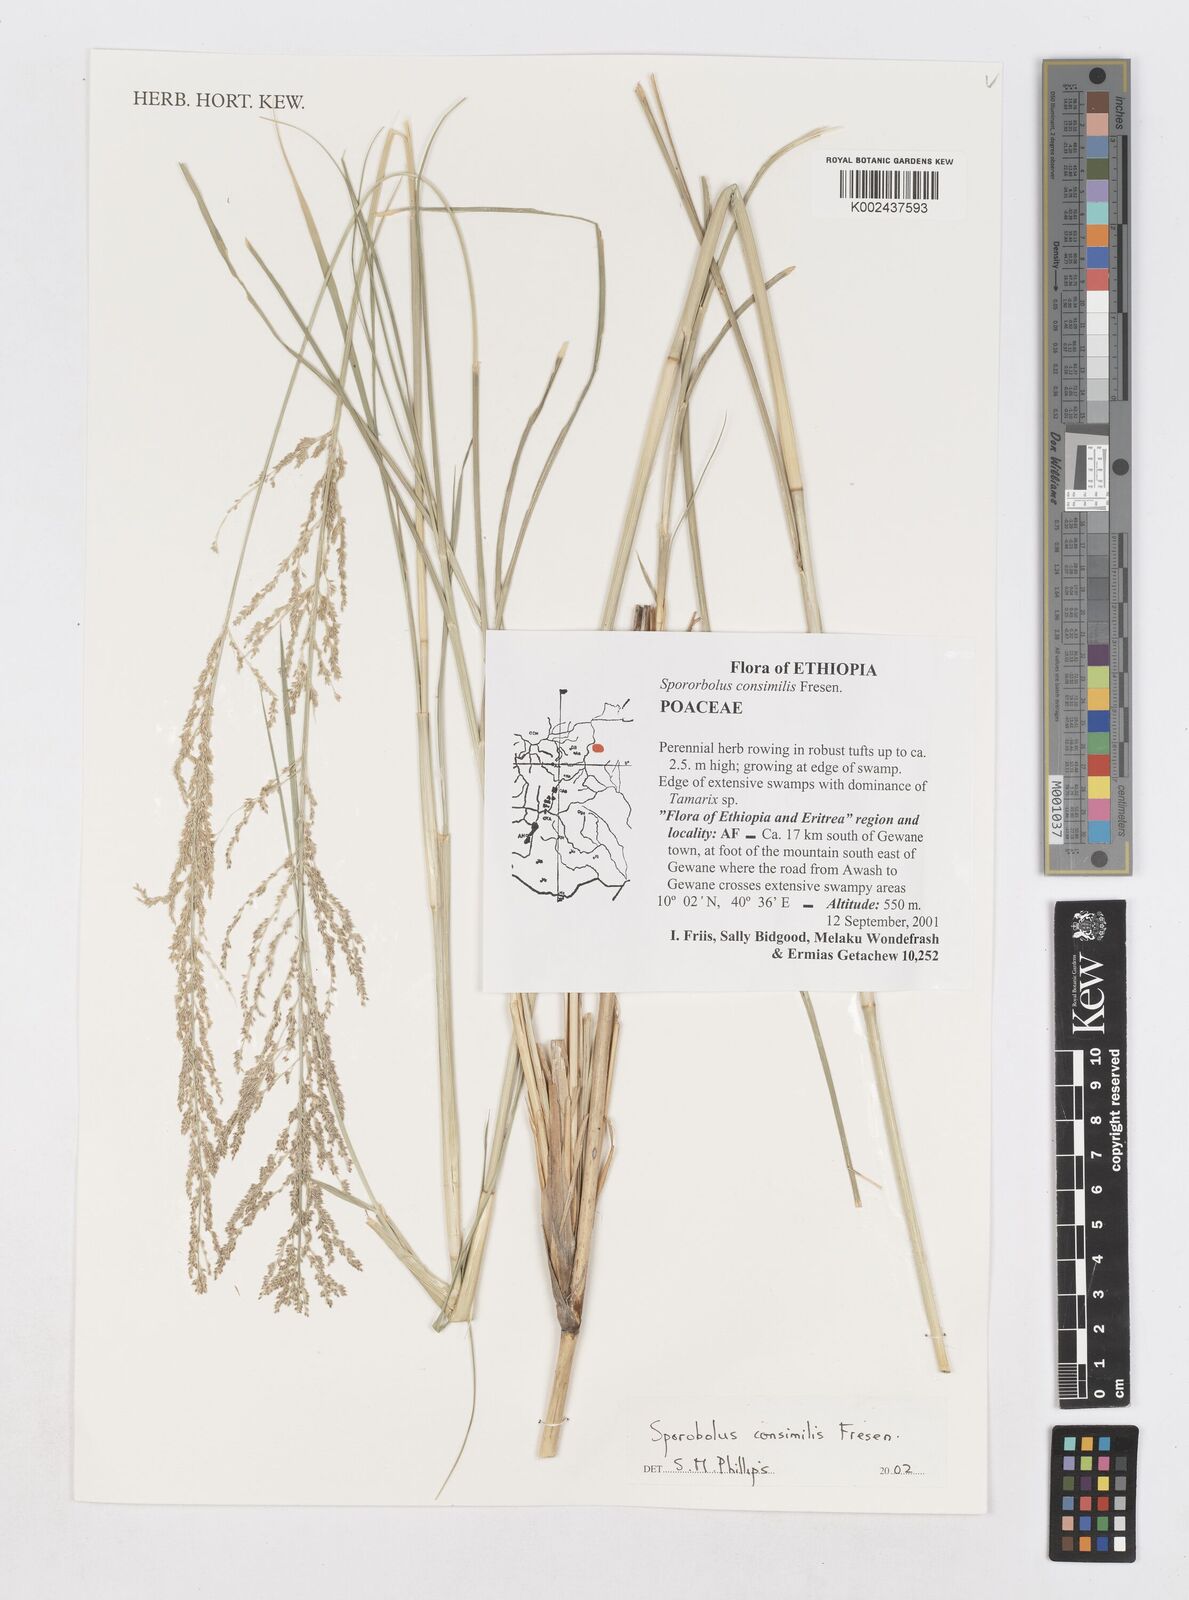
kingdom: Plantae
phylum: Tracheophyta
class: Liliopsida
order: Poales
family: Poaceae
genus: Sporobolus
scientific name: Sporobolus consimilis
